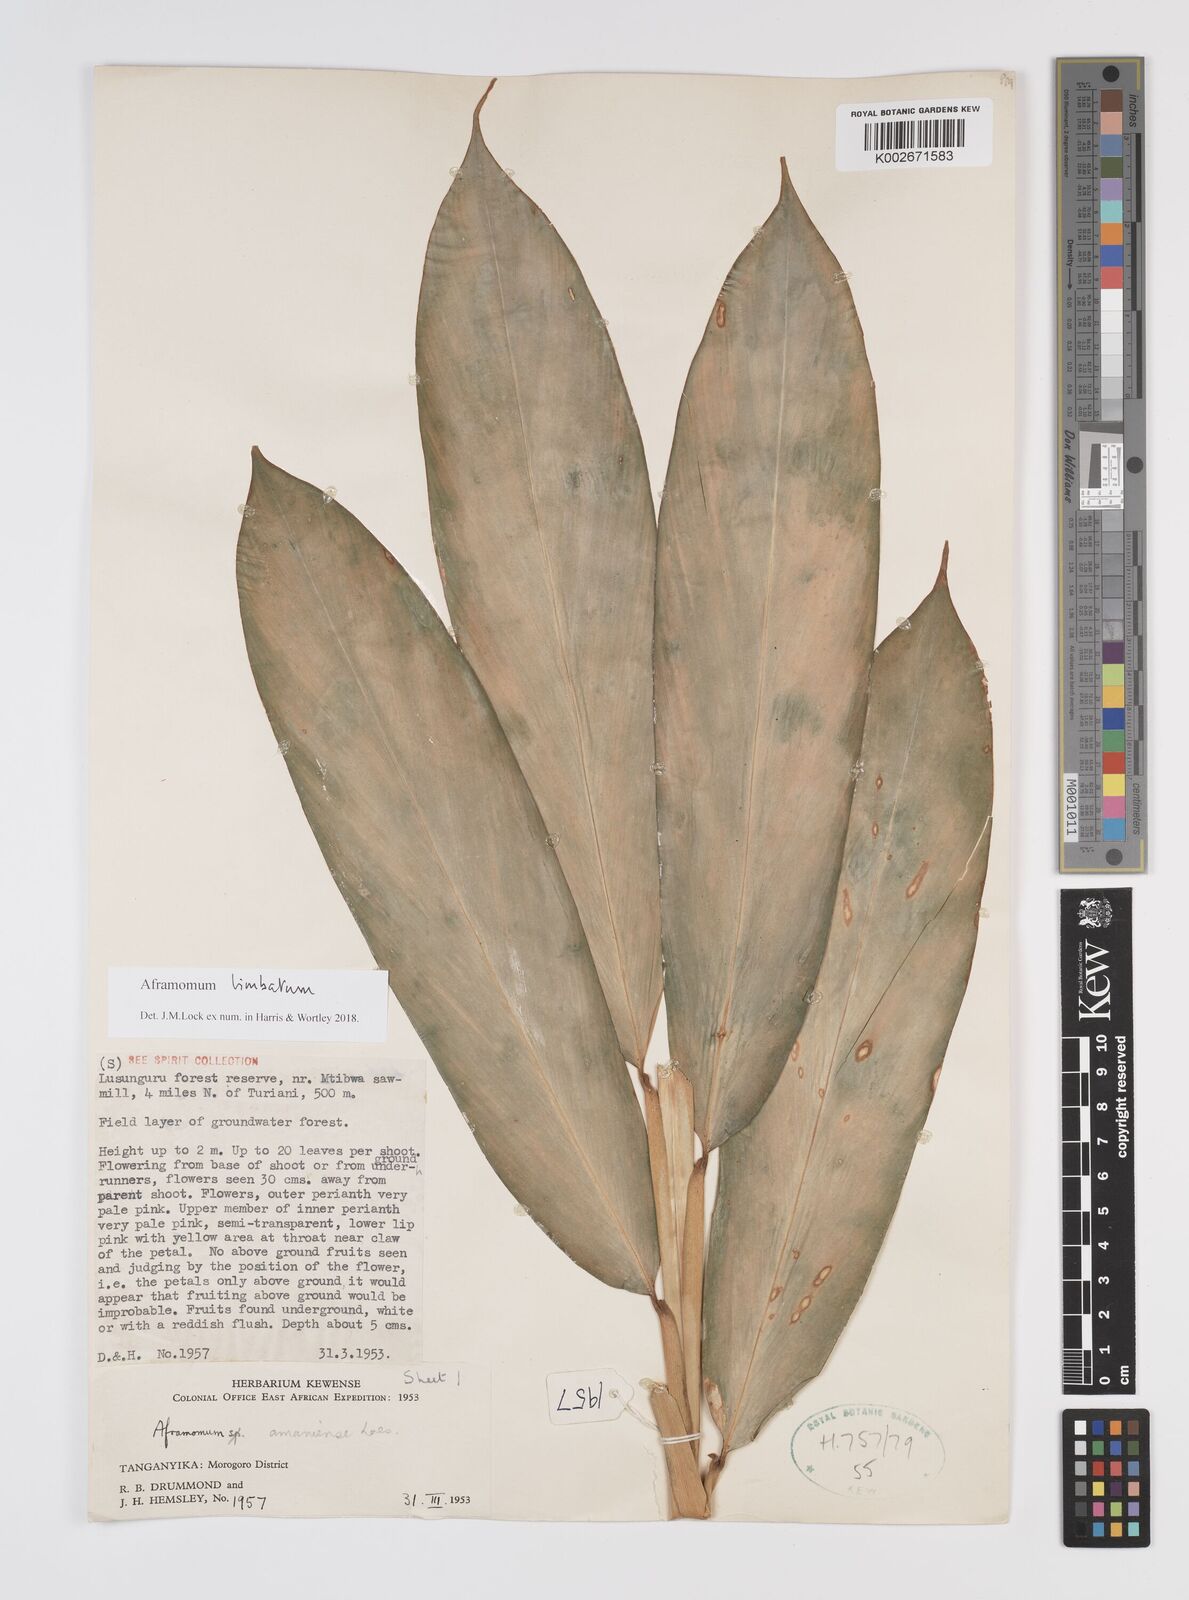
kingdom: Plantae
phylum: Tracheophyta
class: Liliopsida
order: Zingiberales
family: Zingiberaceae
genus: Aframomum
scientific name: Aframomum limbatum
